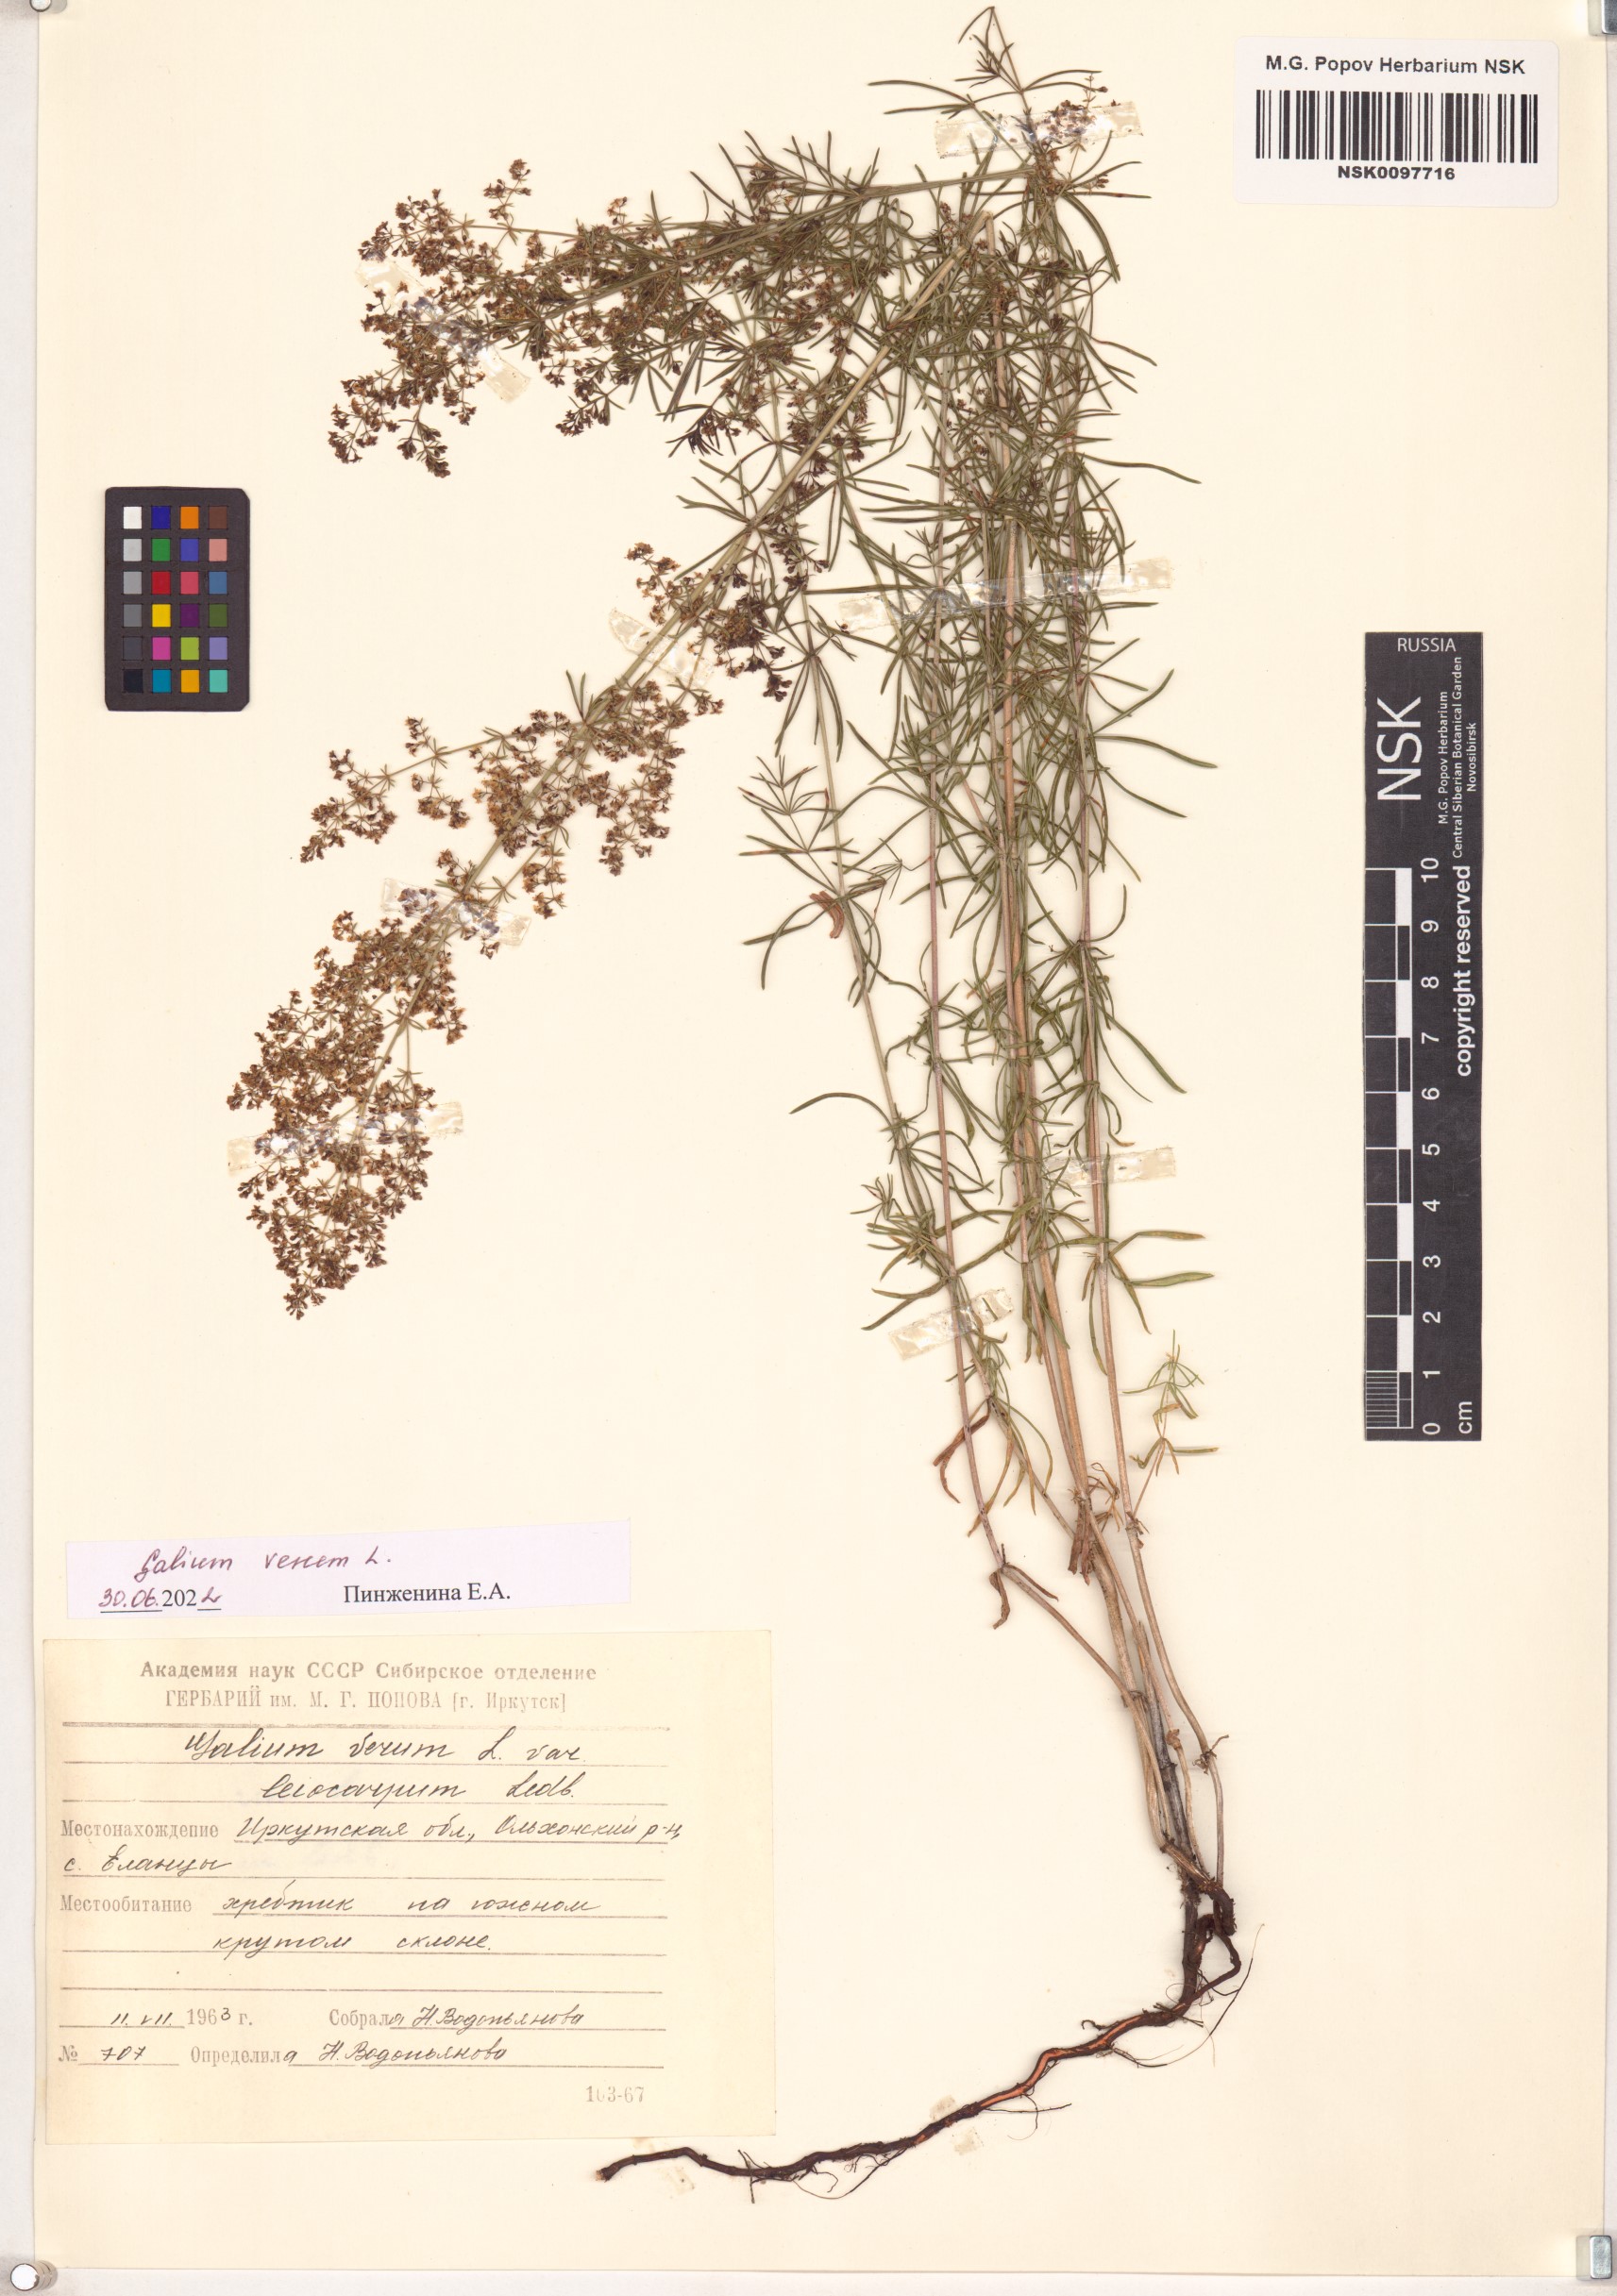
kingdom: Plantae
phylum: Tracheophyta
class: Magnoliopsida
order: Gentianales
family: Rubiaceae
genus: Galium
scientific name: Galium verum
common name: Lady's bedstraw
